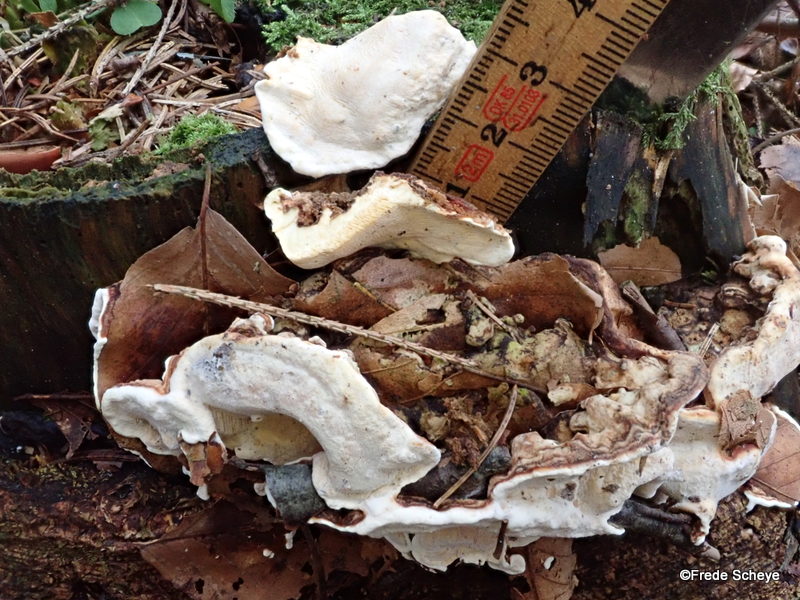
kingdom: Fungi
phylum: Basidiomycota
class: Agaricomycetes
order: Russulales
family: Bondarzewiaceae
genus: Heterobasidion
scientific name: Heterobasidion annosum
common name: almindelig rodfordærver
